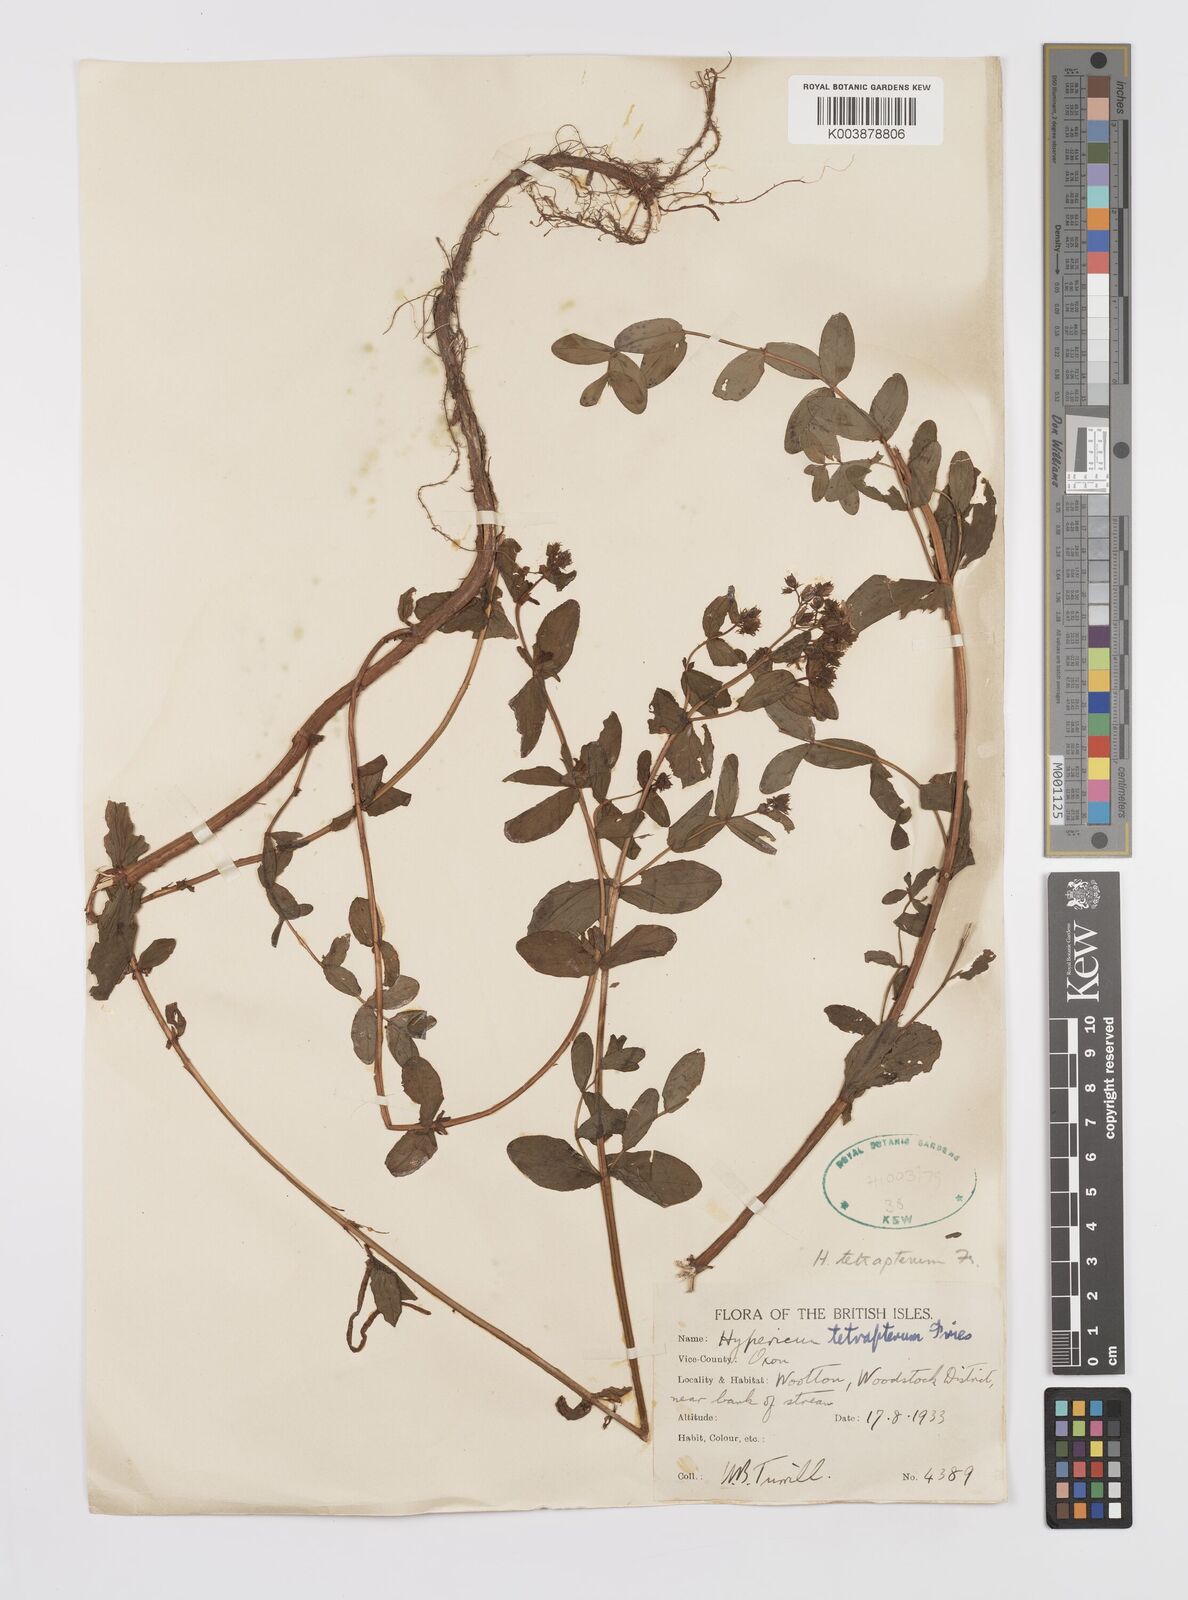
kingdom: Plantae
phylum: Tracheophyta
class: Magnoliopsida
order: Malpighiales
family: Hypericaceae
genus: Hypericum
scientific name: Hypericum tetrapterum
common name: Square-stalked st. john's-wort
